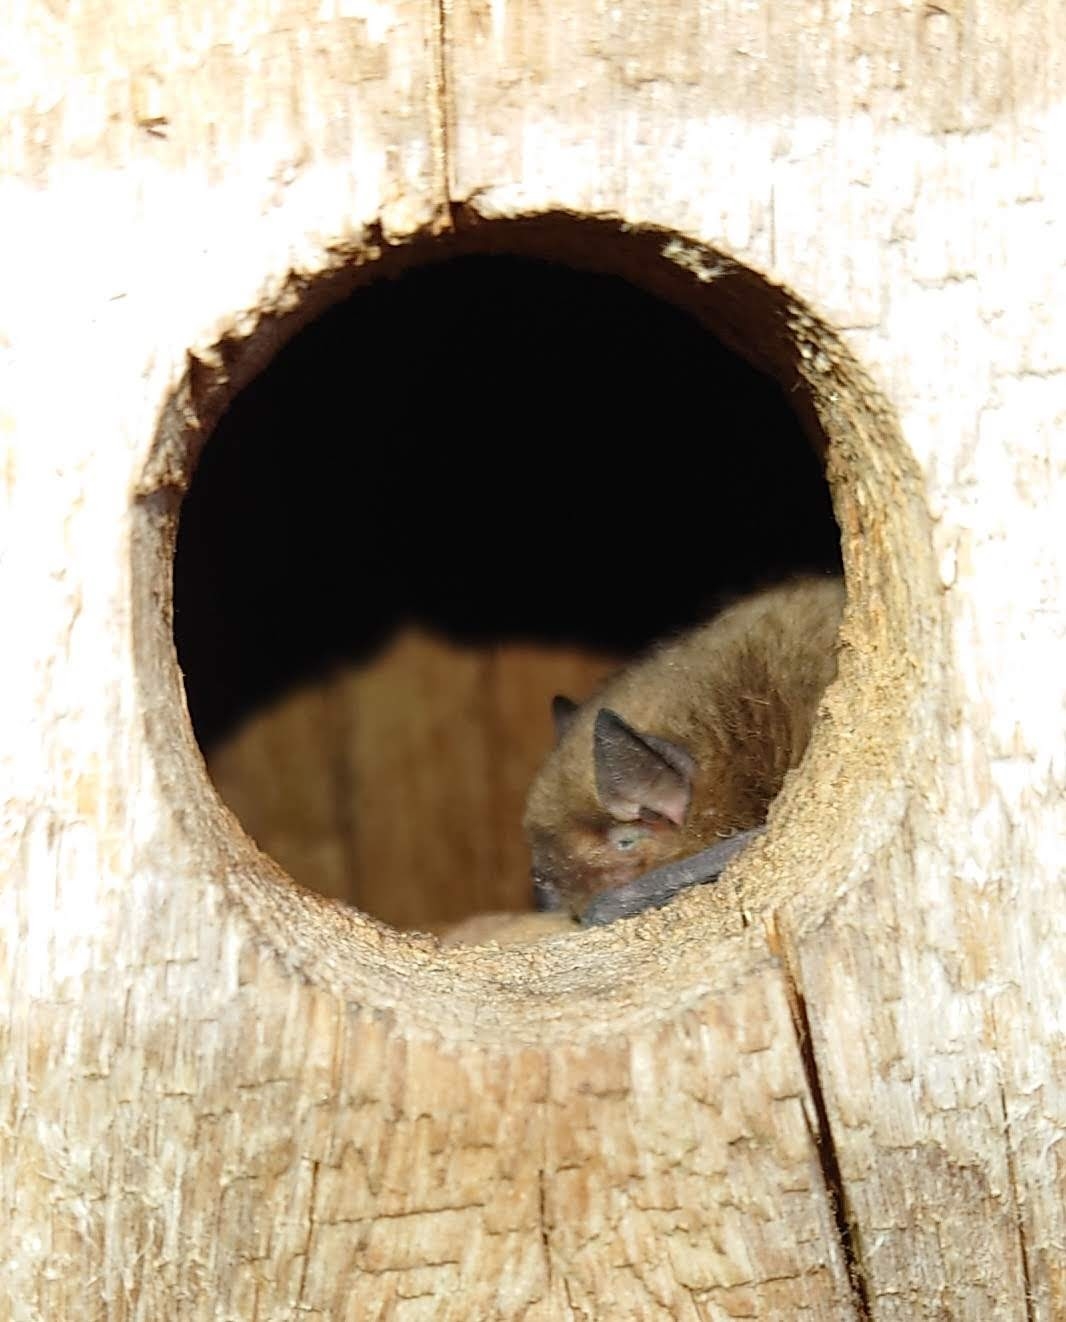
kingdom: Animalia
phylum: Chordata
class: Mammalia
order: Chiroptera
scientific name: Chiroptera
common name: Flagermus
